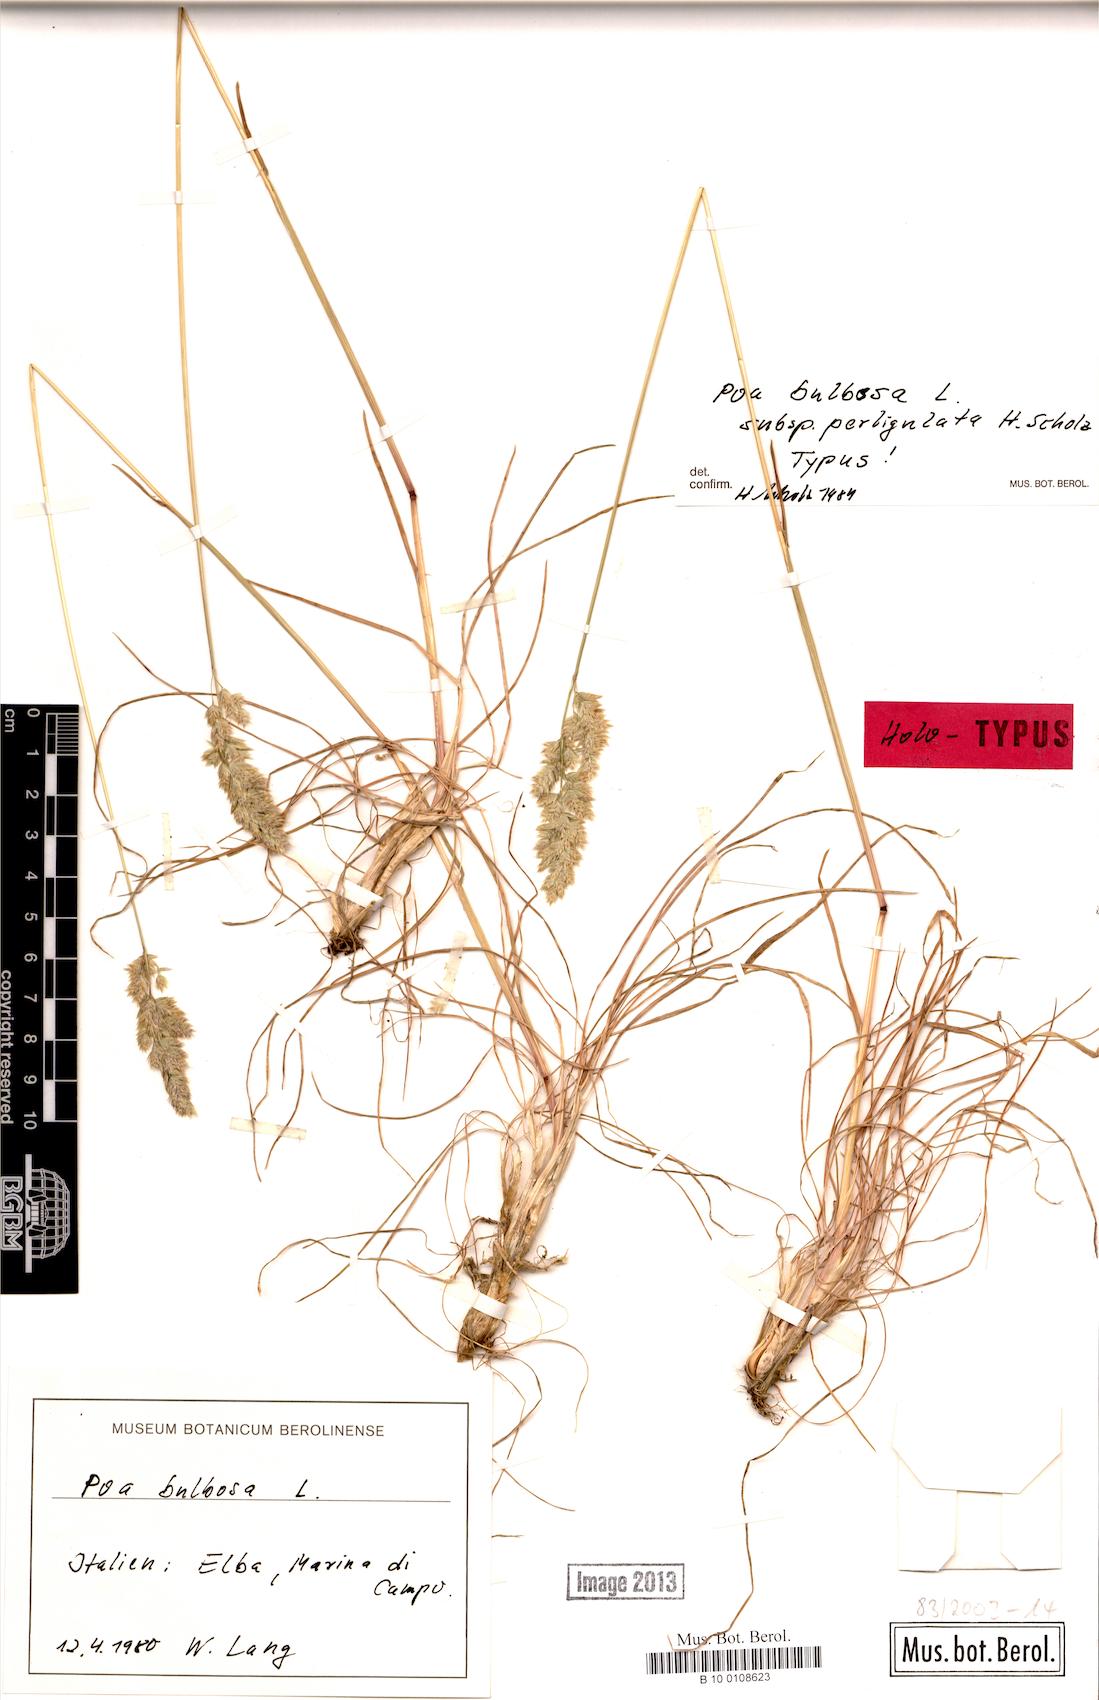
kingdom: Plantae
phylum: Tracheophyta
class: Liliopsida
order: Poales
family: Poaceae
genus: Poa
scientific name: Poa perligulata
